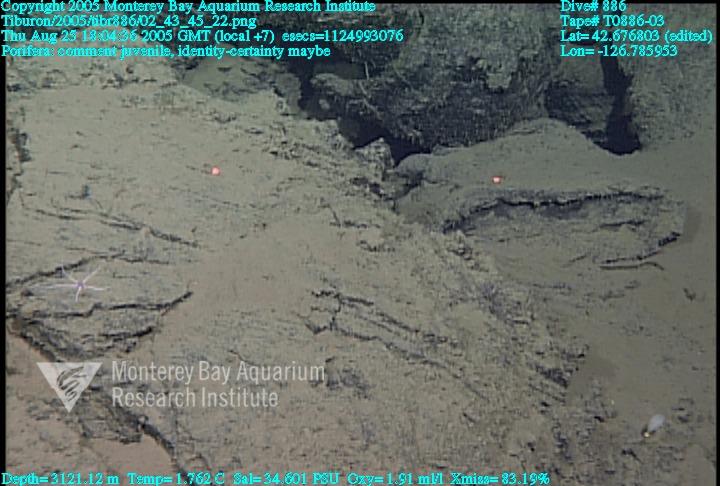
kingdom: Animalia
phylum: Porifera
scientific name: Porifera
